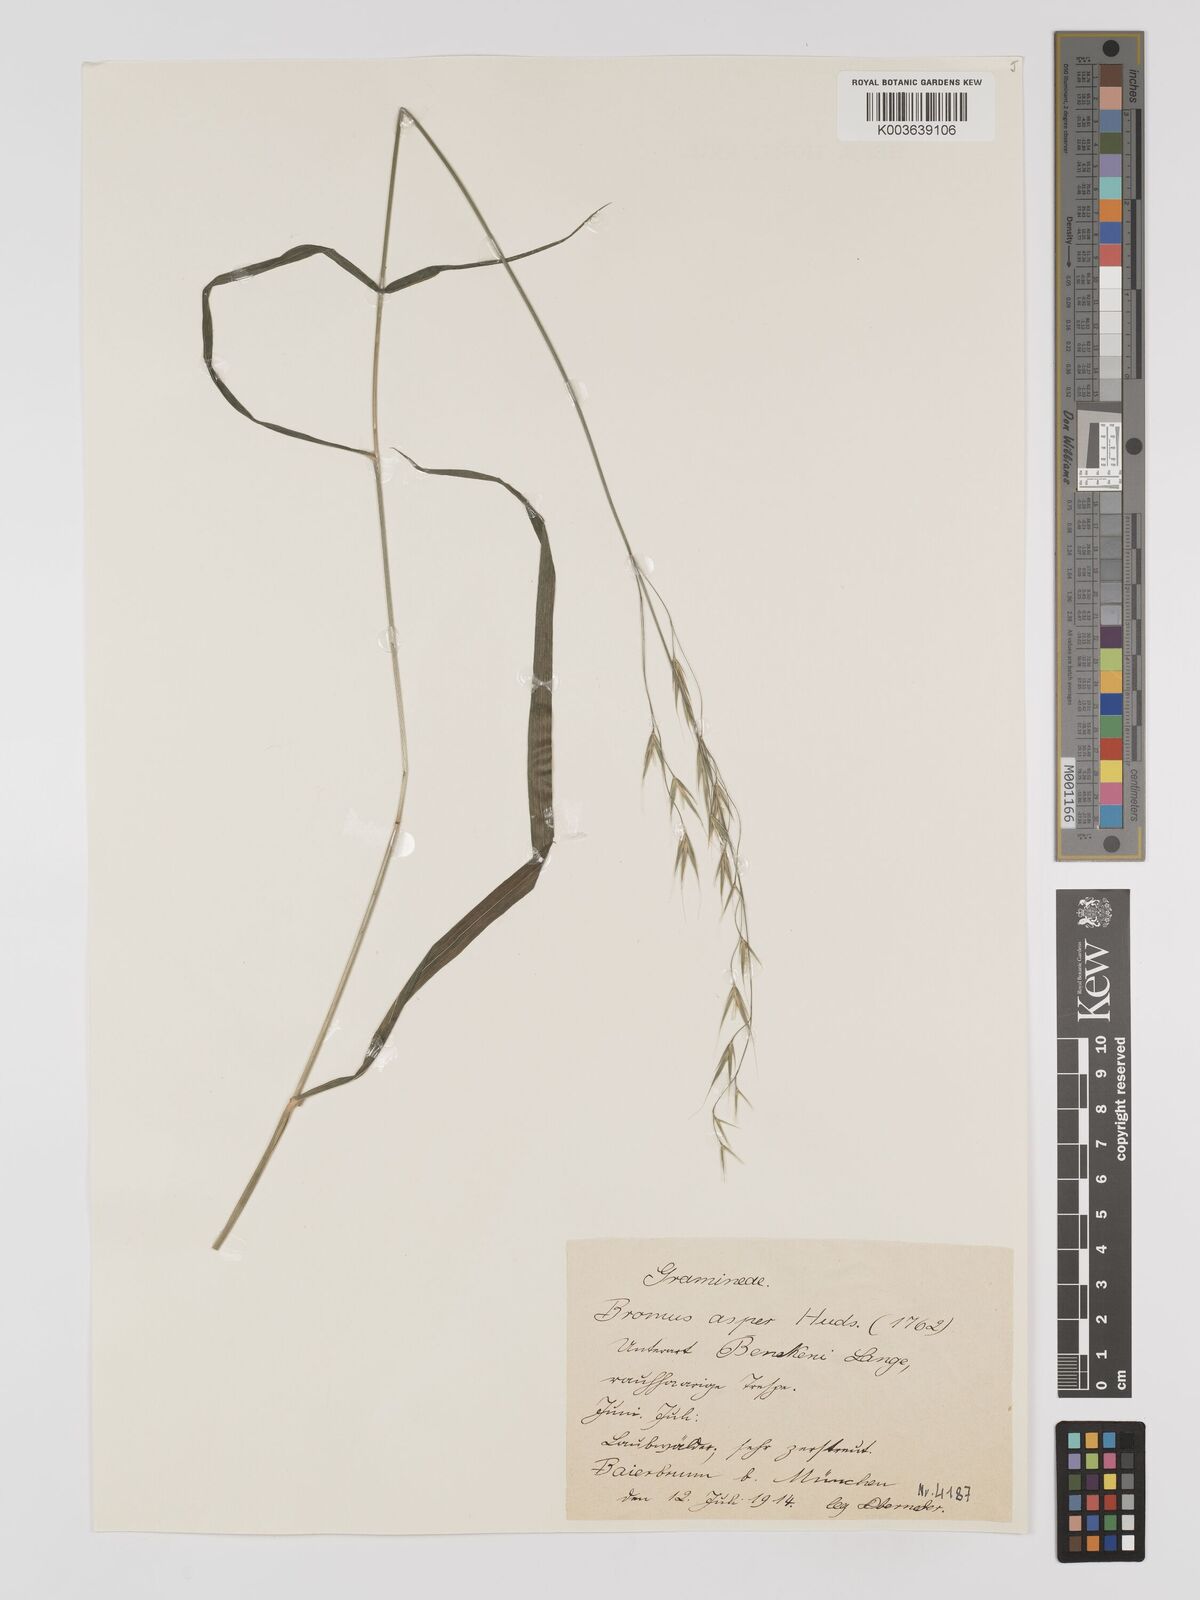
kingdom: Plantae
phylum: Tracheophyta
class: Liliopsida
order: Poales
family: Poaceae
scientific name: Poaceae
